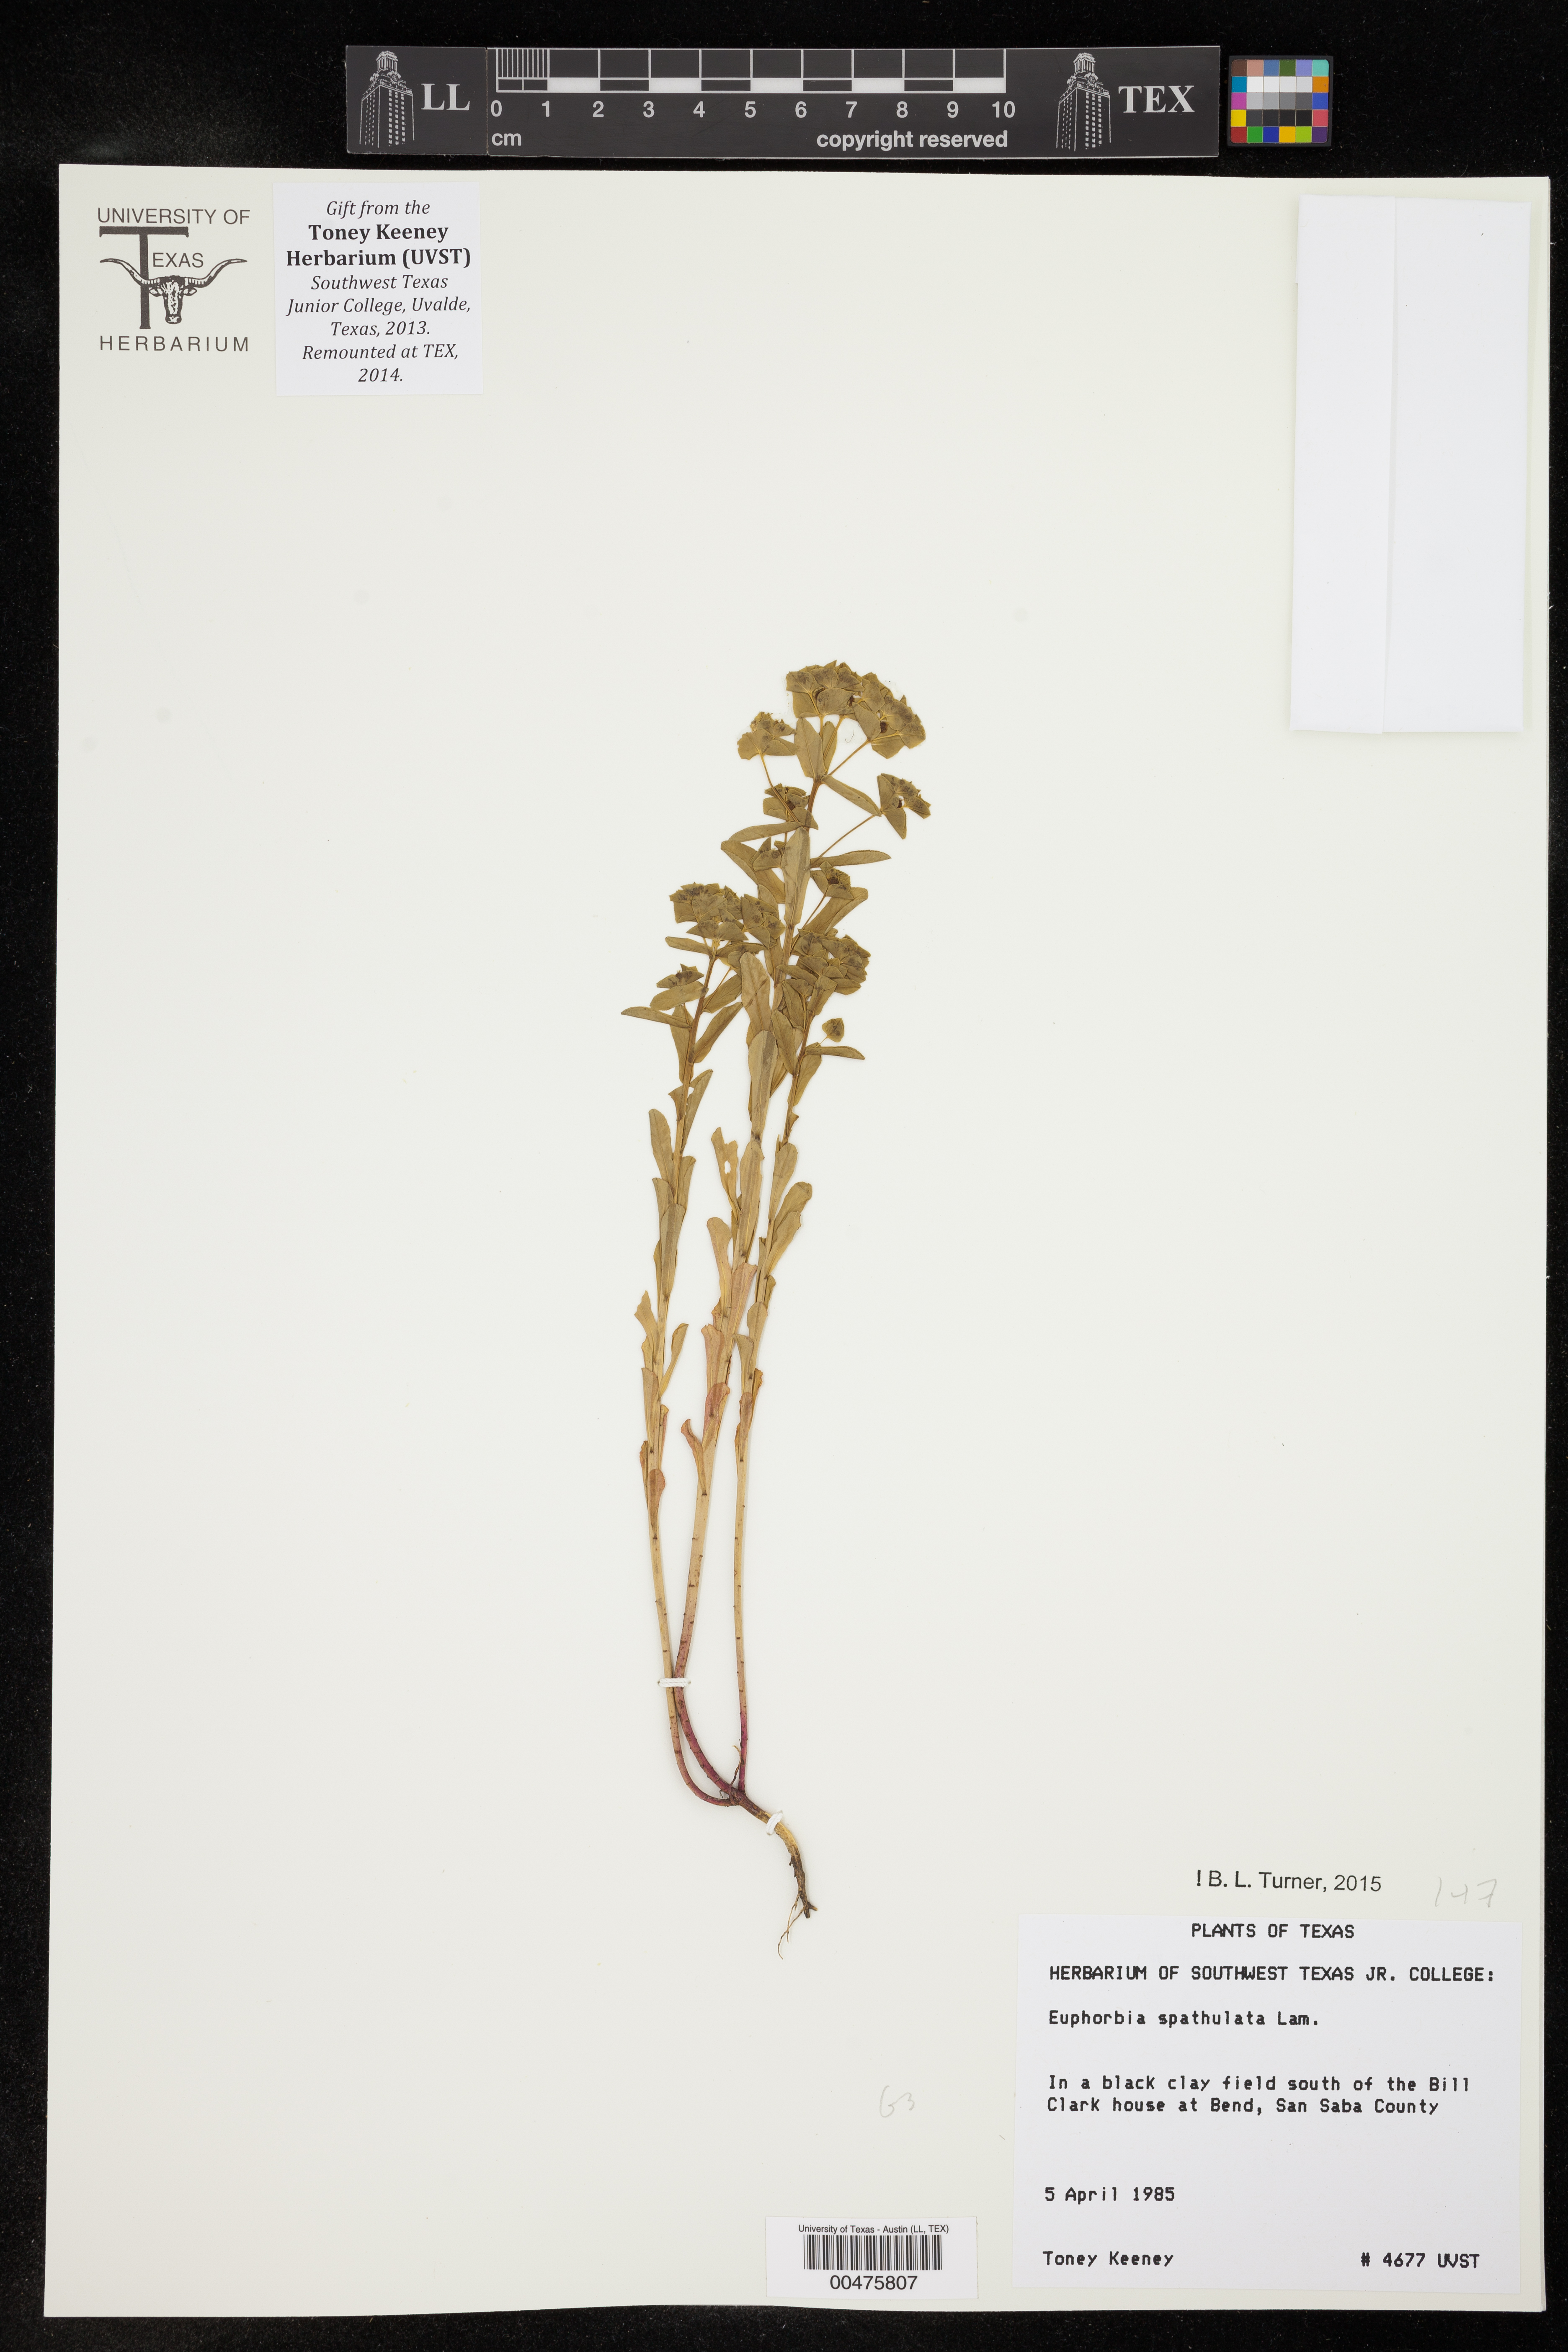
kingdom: Plantae
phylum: Tracheophyta
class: Magnoliopsida
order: Malpighiales
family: Euphorbiaceae
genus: Euphorbia
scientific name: Euphorbia spathulata
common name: Blunt spurge
